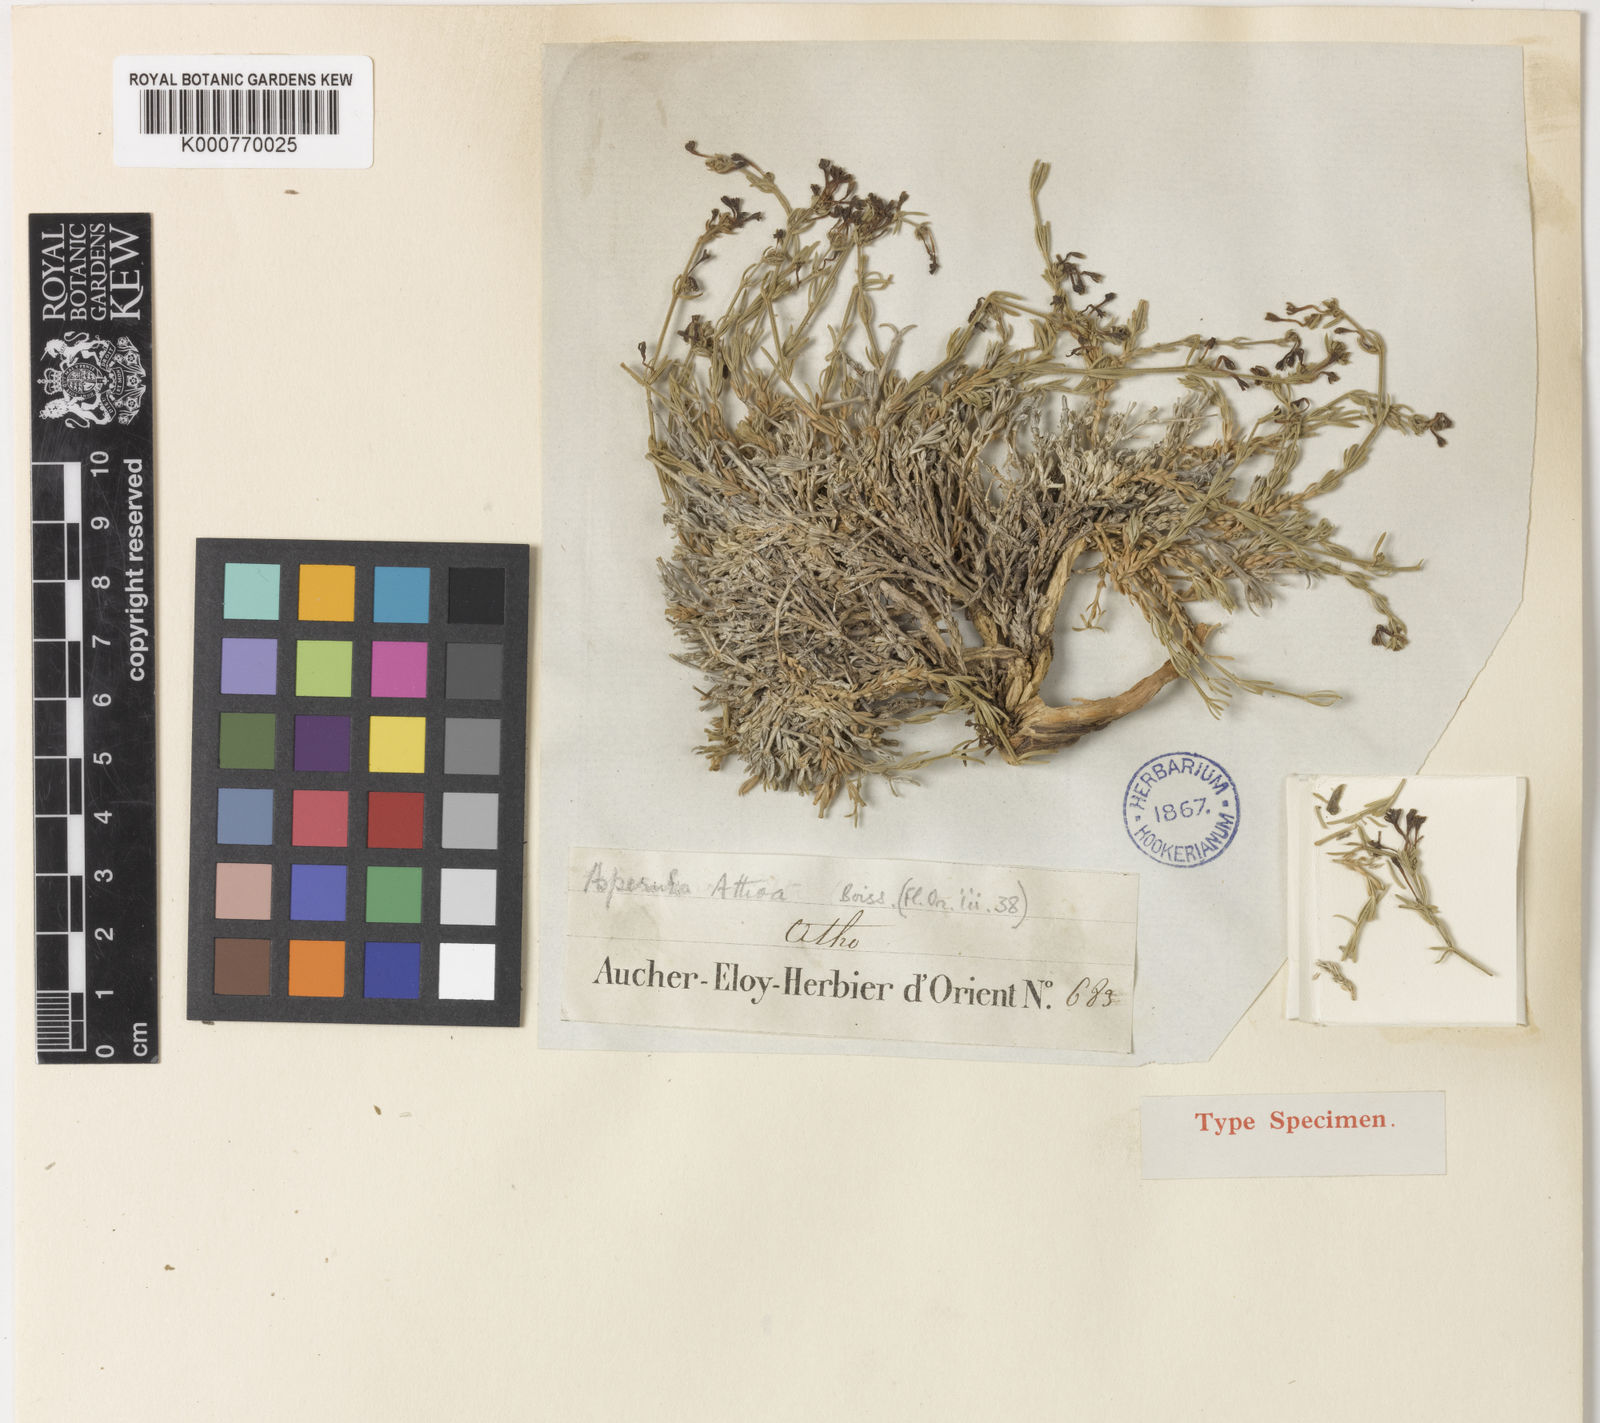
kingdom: Plantae
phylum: Tracheophyta
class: Magnoliopsida
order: Gentianales
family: Rubiaceae
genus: Cynanchica
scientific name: Cynanchica suberosa
